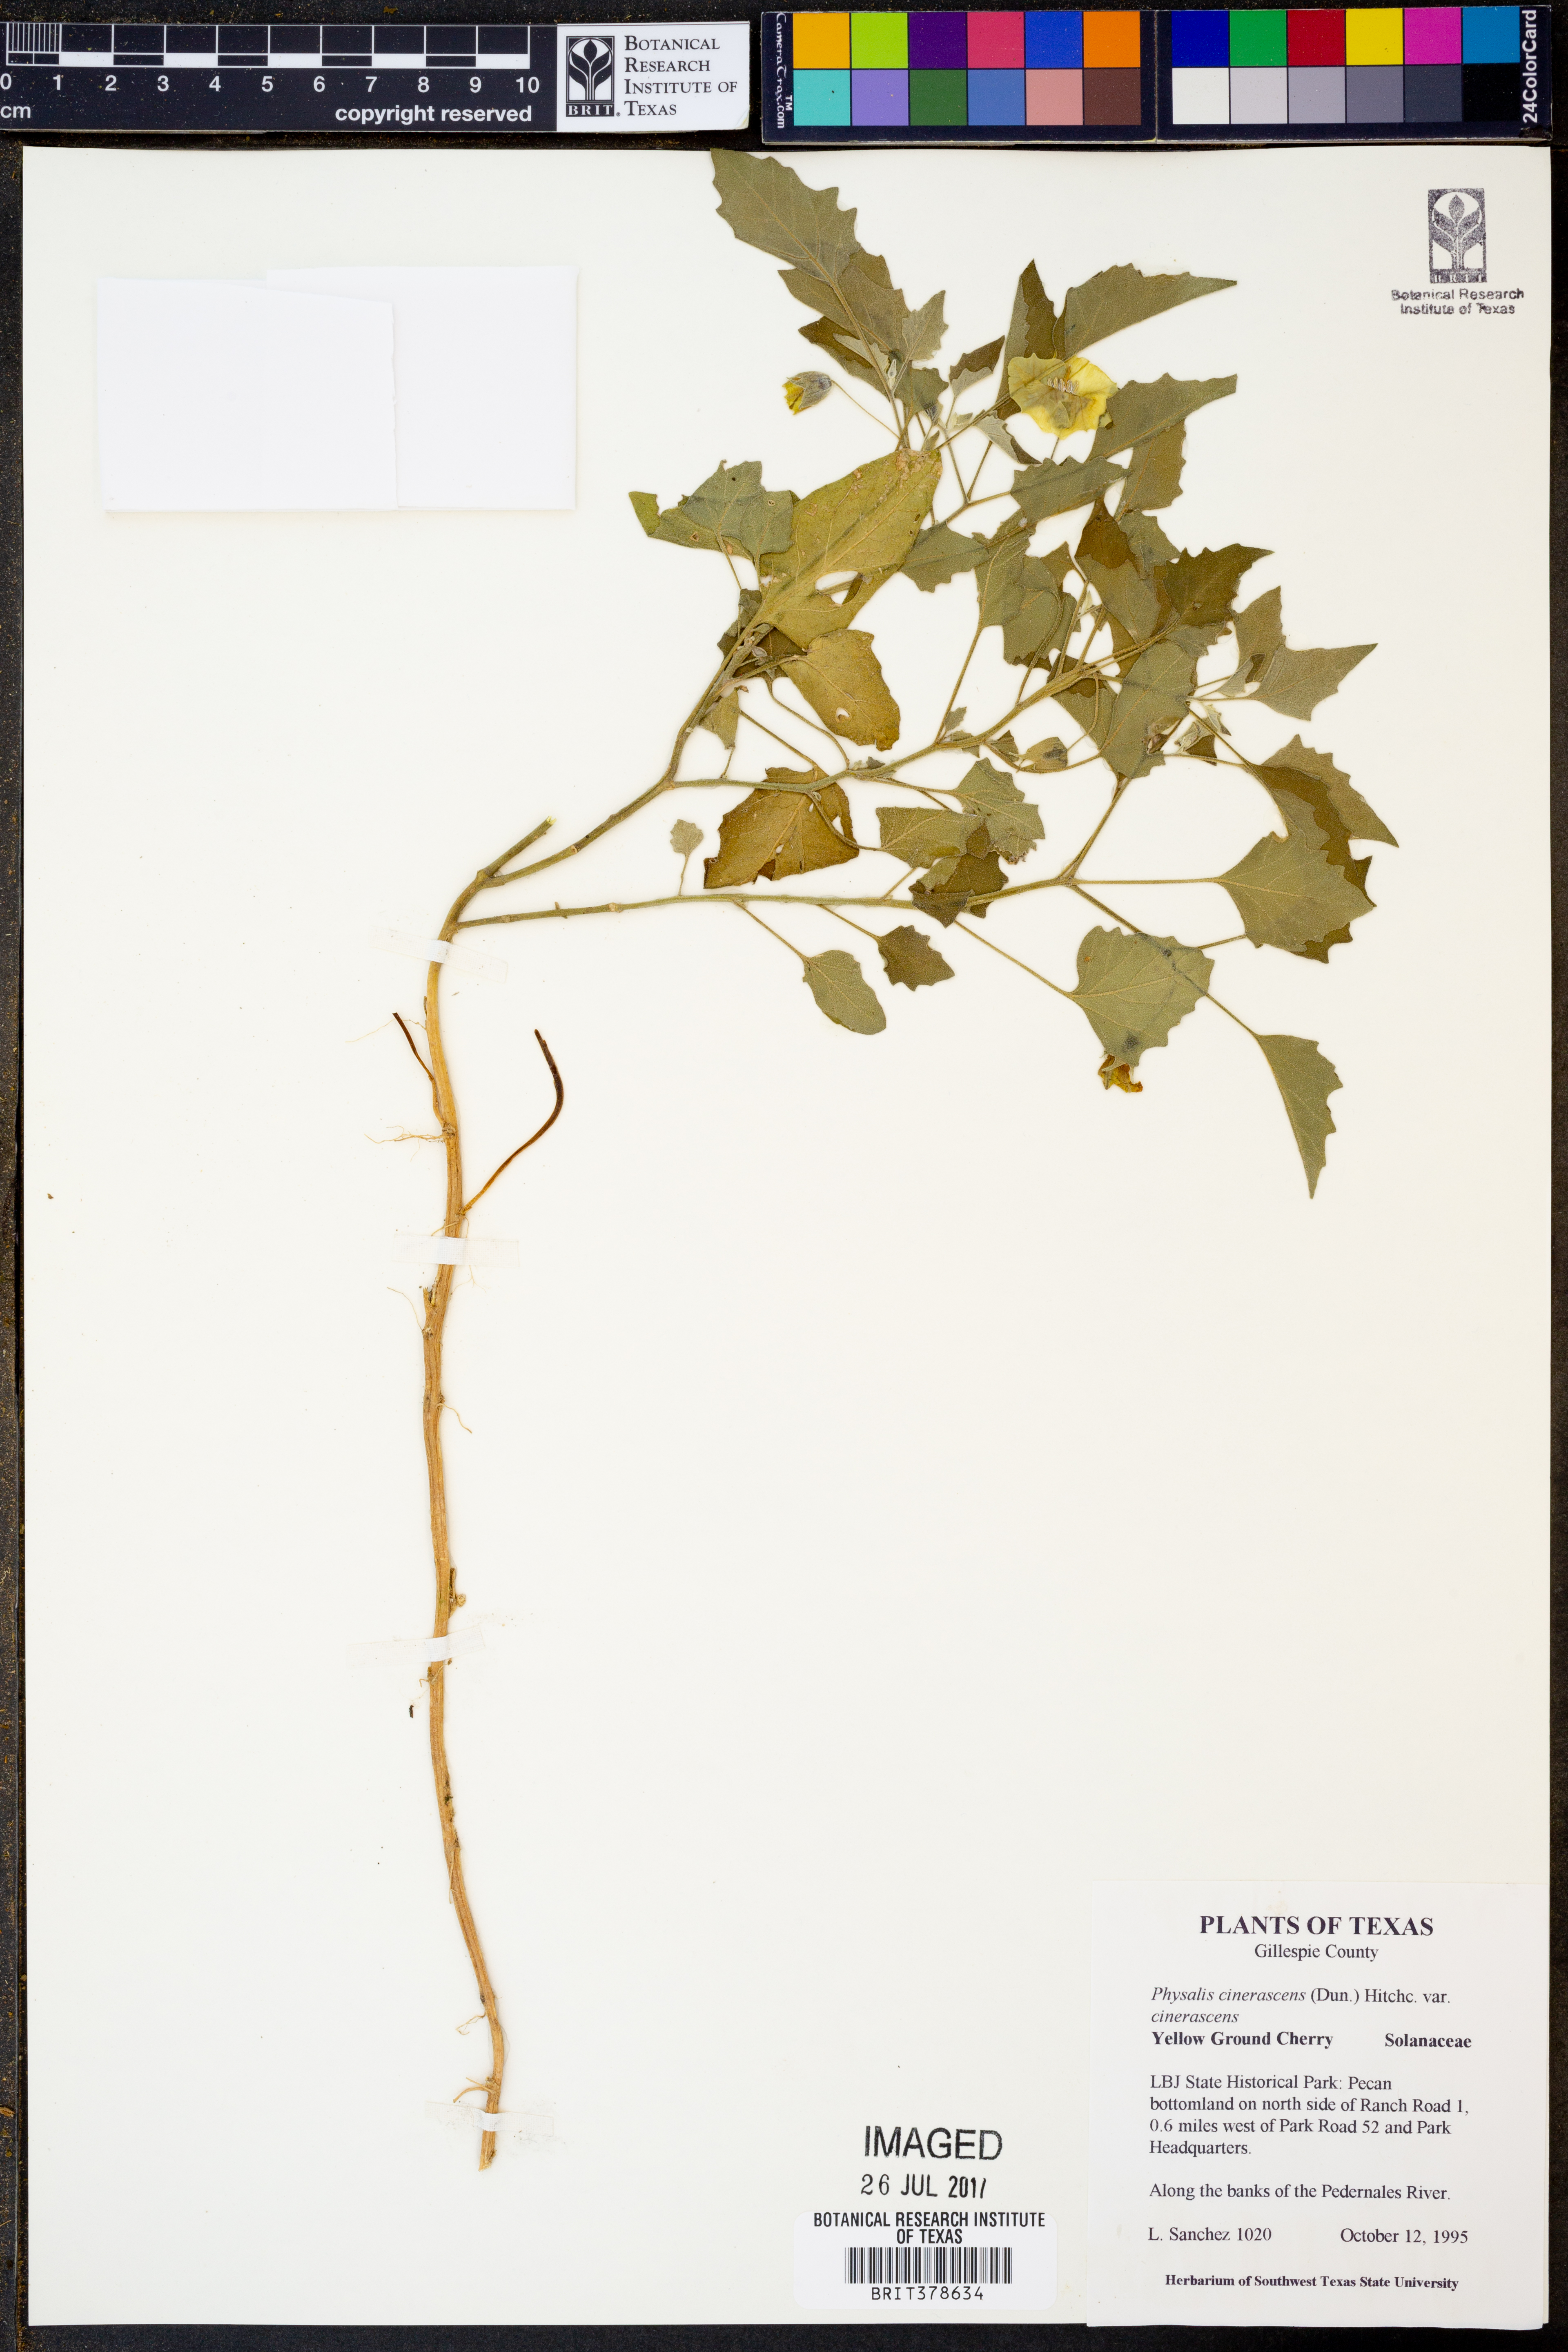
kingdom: Plantae
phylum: Tracheophyta
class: Magnoliopsida
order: Solanales
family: Solanaceae
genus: Physalis
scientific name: Physalis cinerascens
